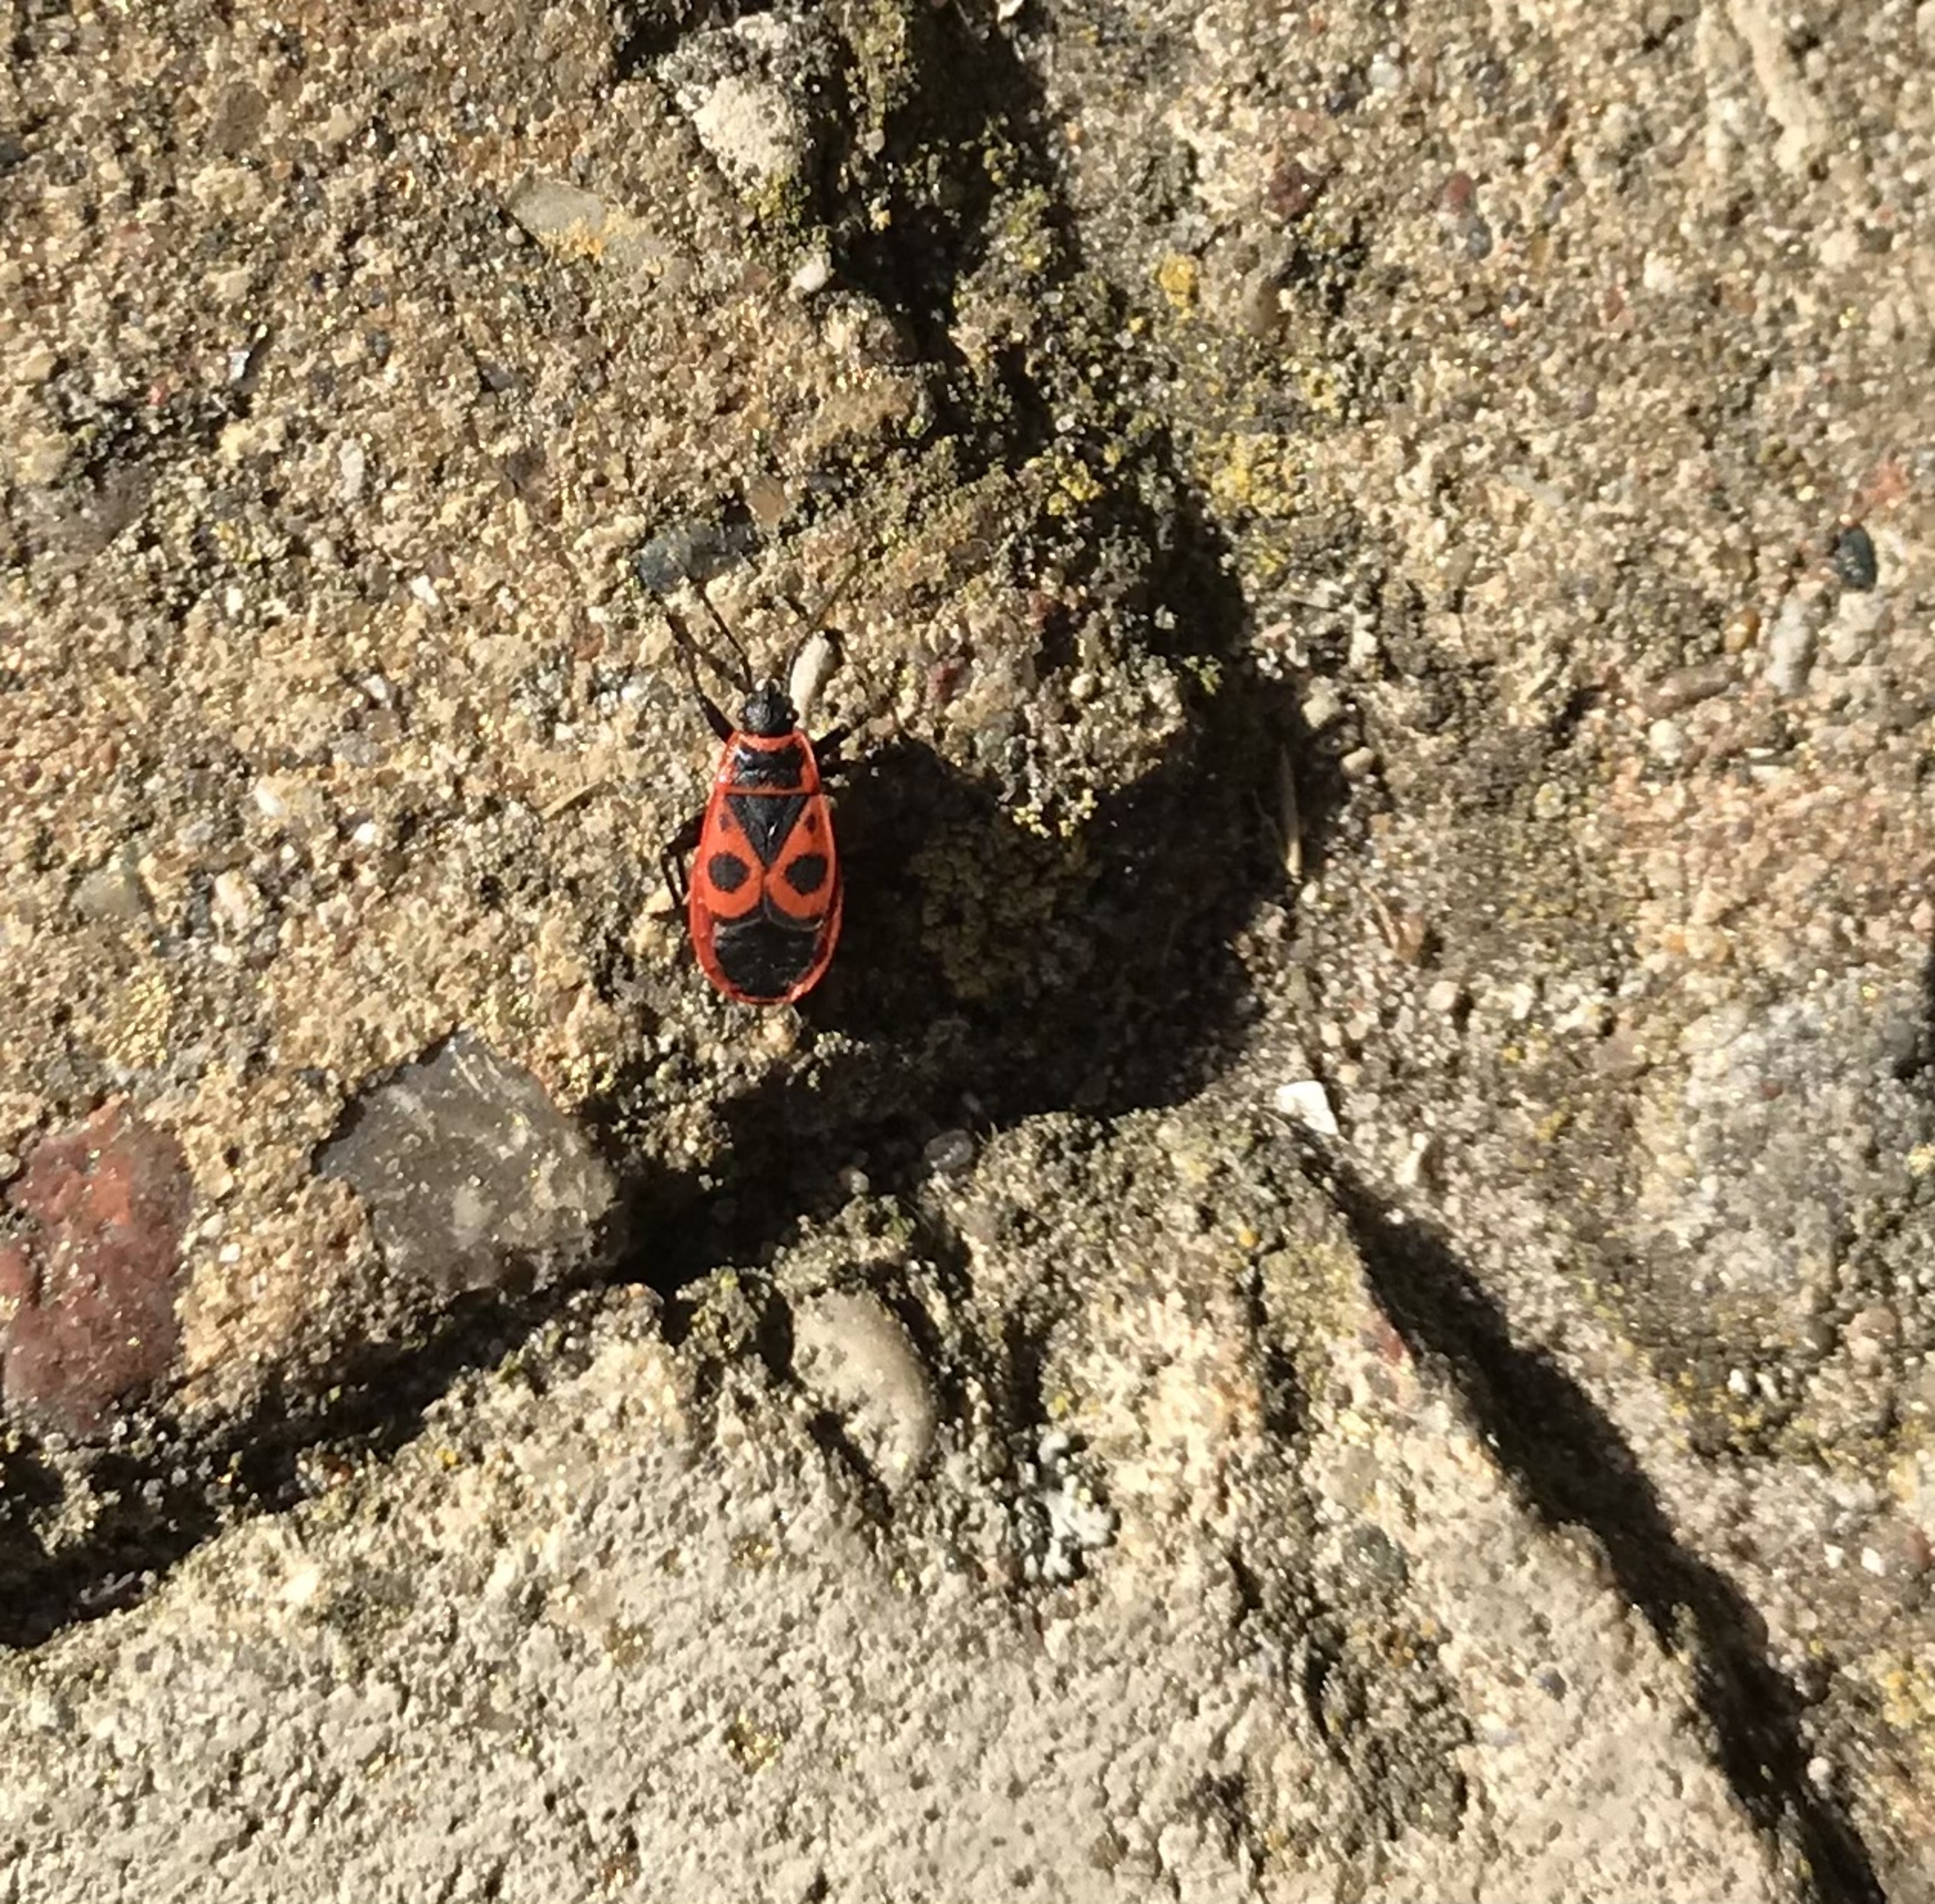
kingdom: Animalia
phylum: Arthropoda
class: Insecta
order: Hemiptera
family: Pyrrhocoridae
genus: Pyrrhocoris
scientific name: Pyrrhocoris apterus
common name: Ildtæge
